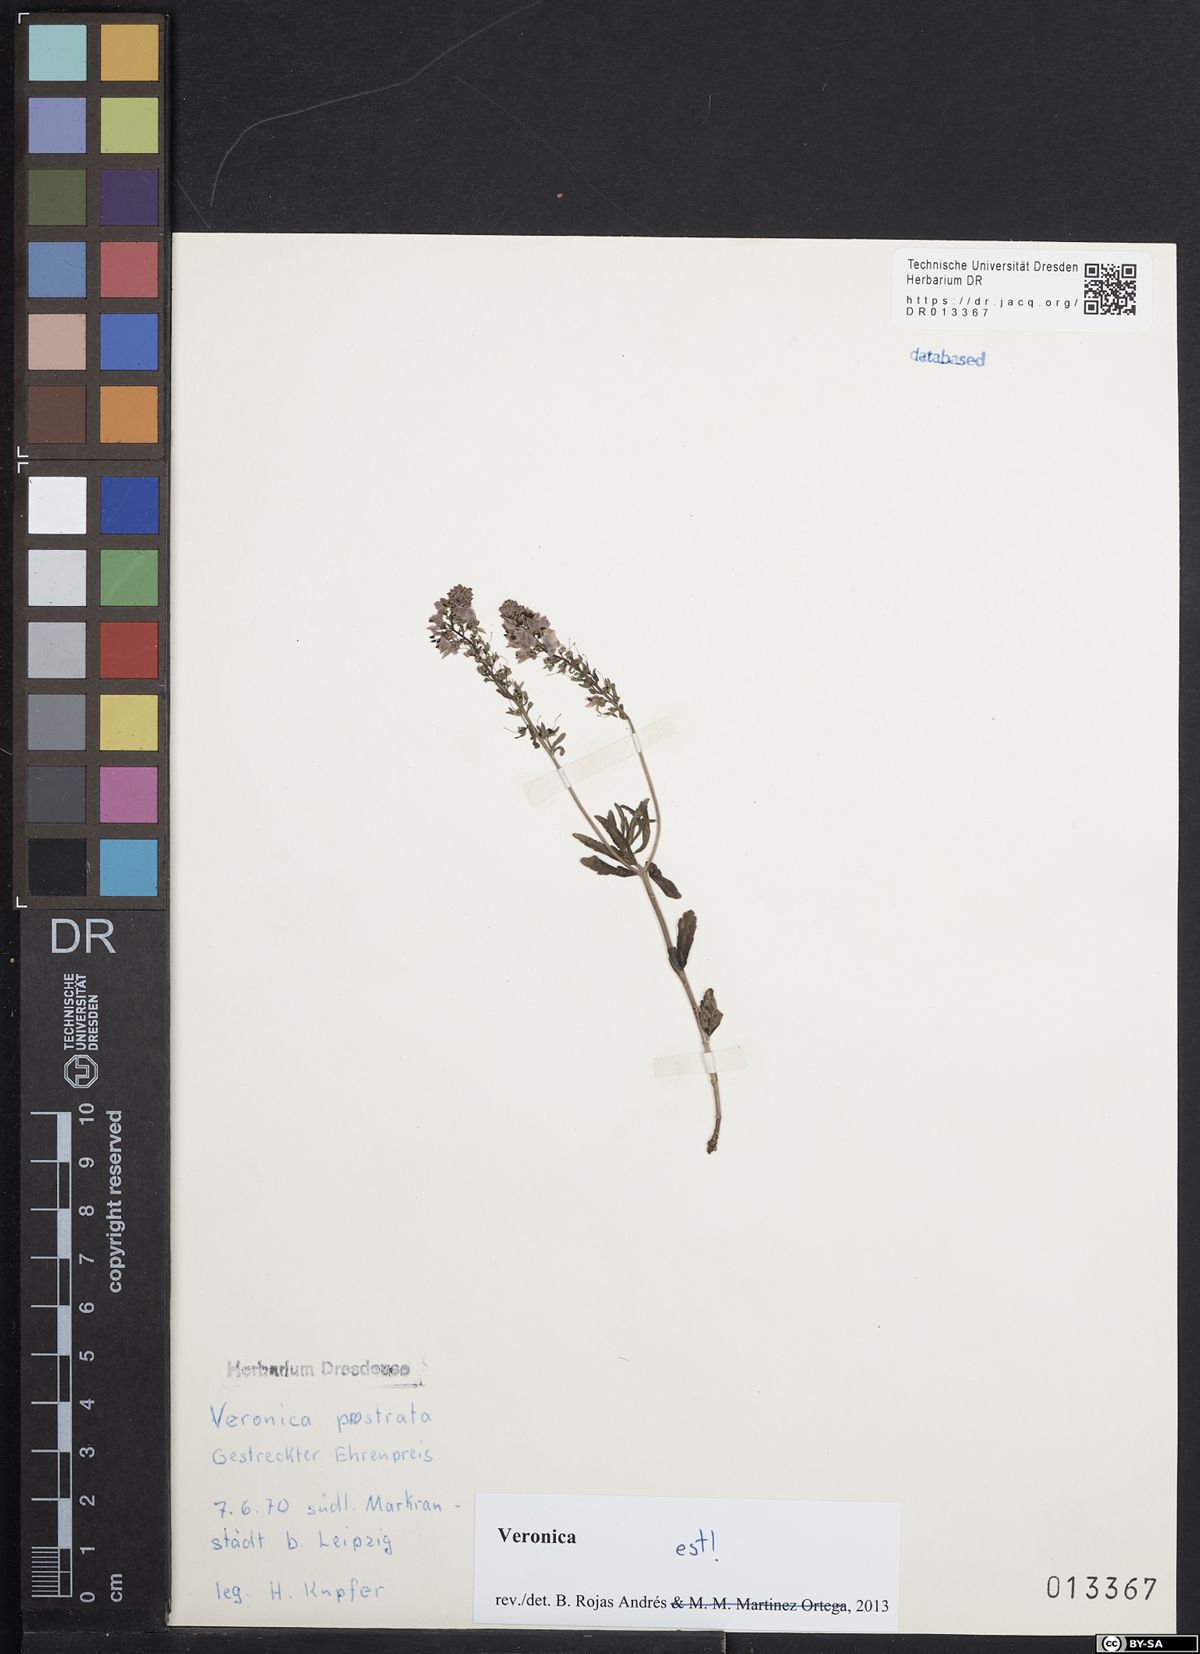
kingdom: Plantae
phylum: Tracheophyta
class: Magnoliopsida
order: Lamiales
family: Plantaginaceae
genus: Veronica
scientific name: Veronica prostrata
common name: Prostrate speedwell
